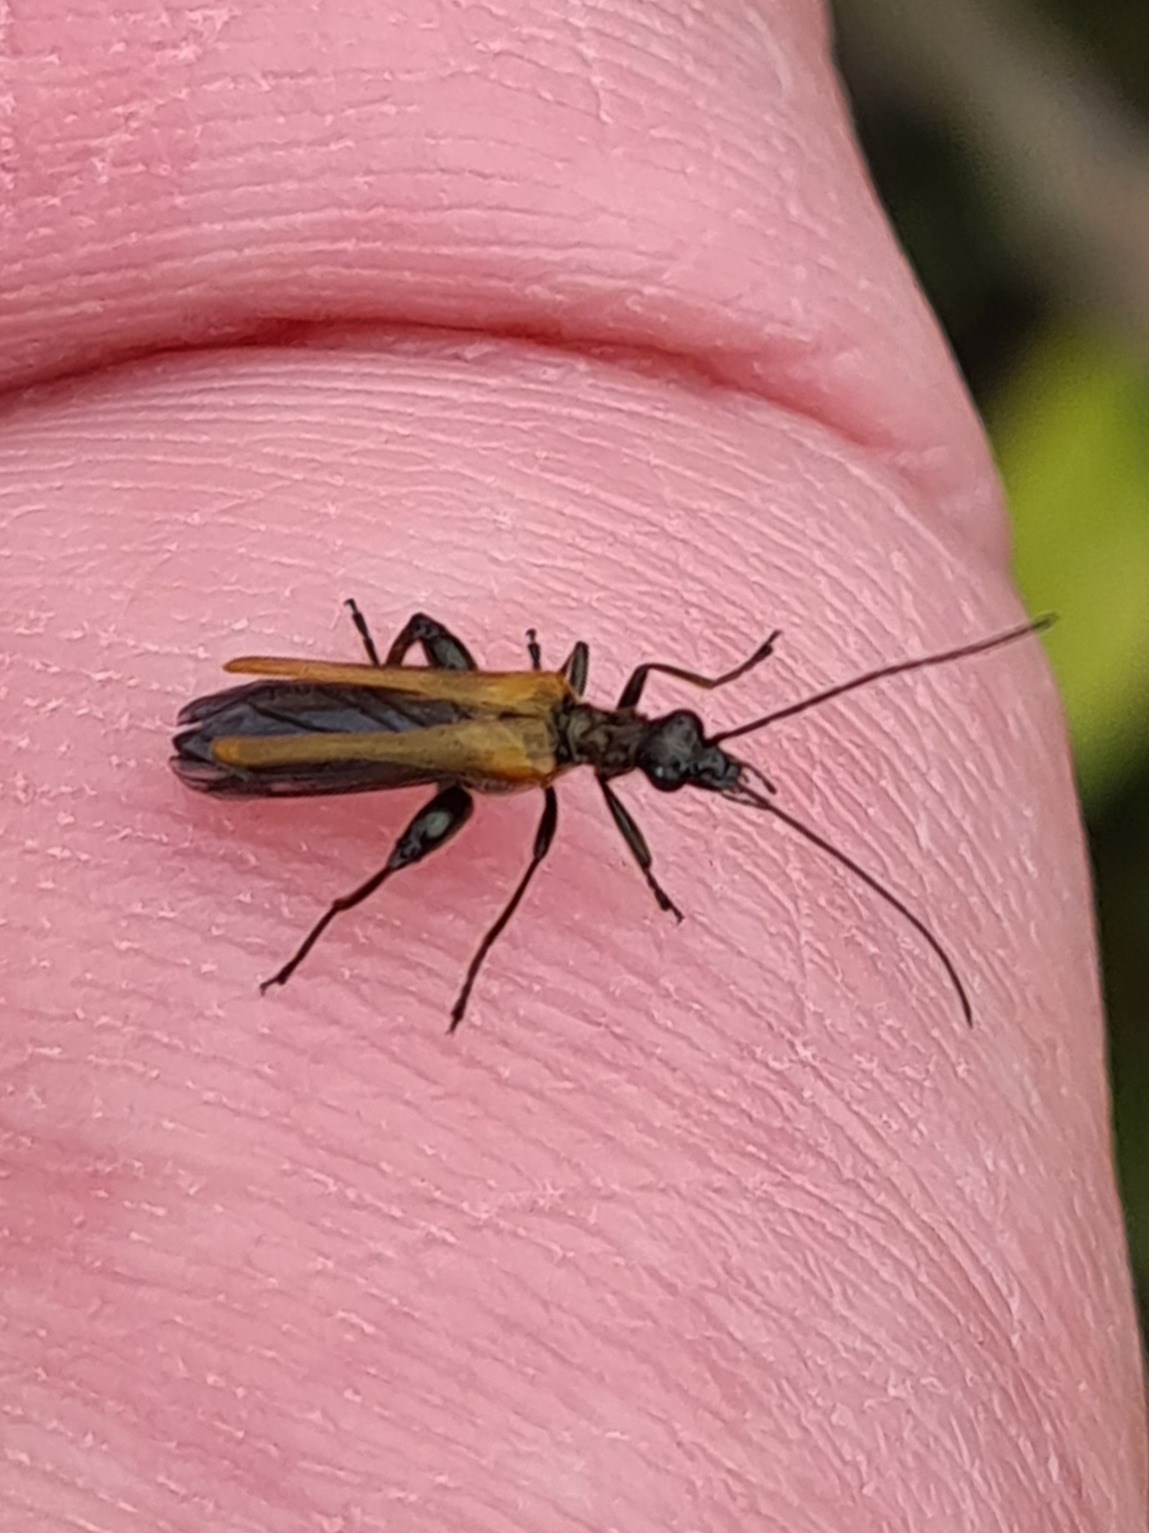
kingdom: Animalia
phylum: Arthropoda
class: Insecta
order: Coleoptera
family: Oedemeridae
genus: Oedemera
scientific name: Oedemera femorata
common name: Gulvinget solbille
